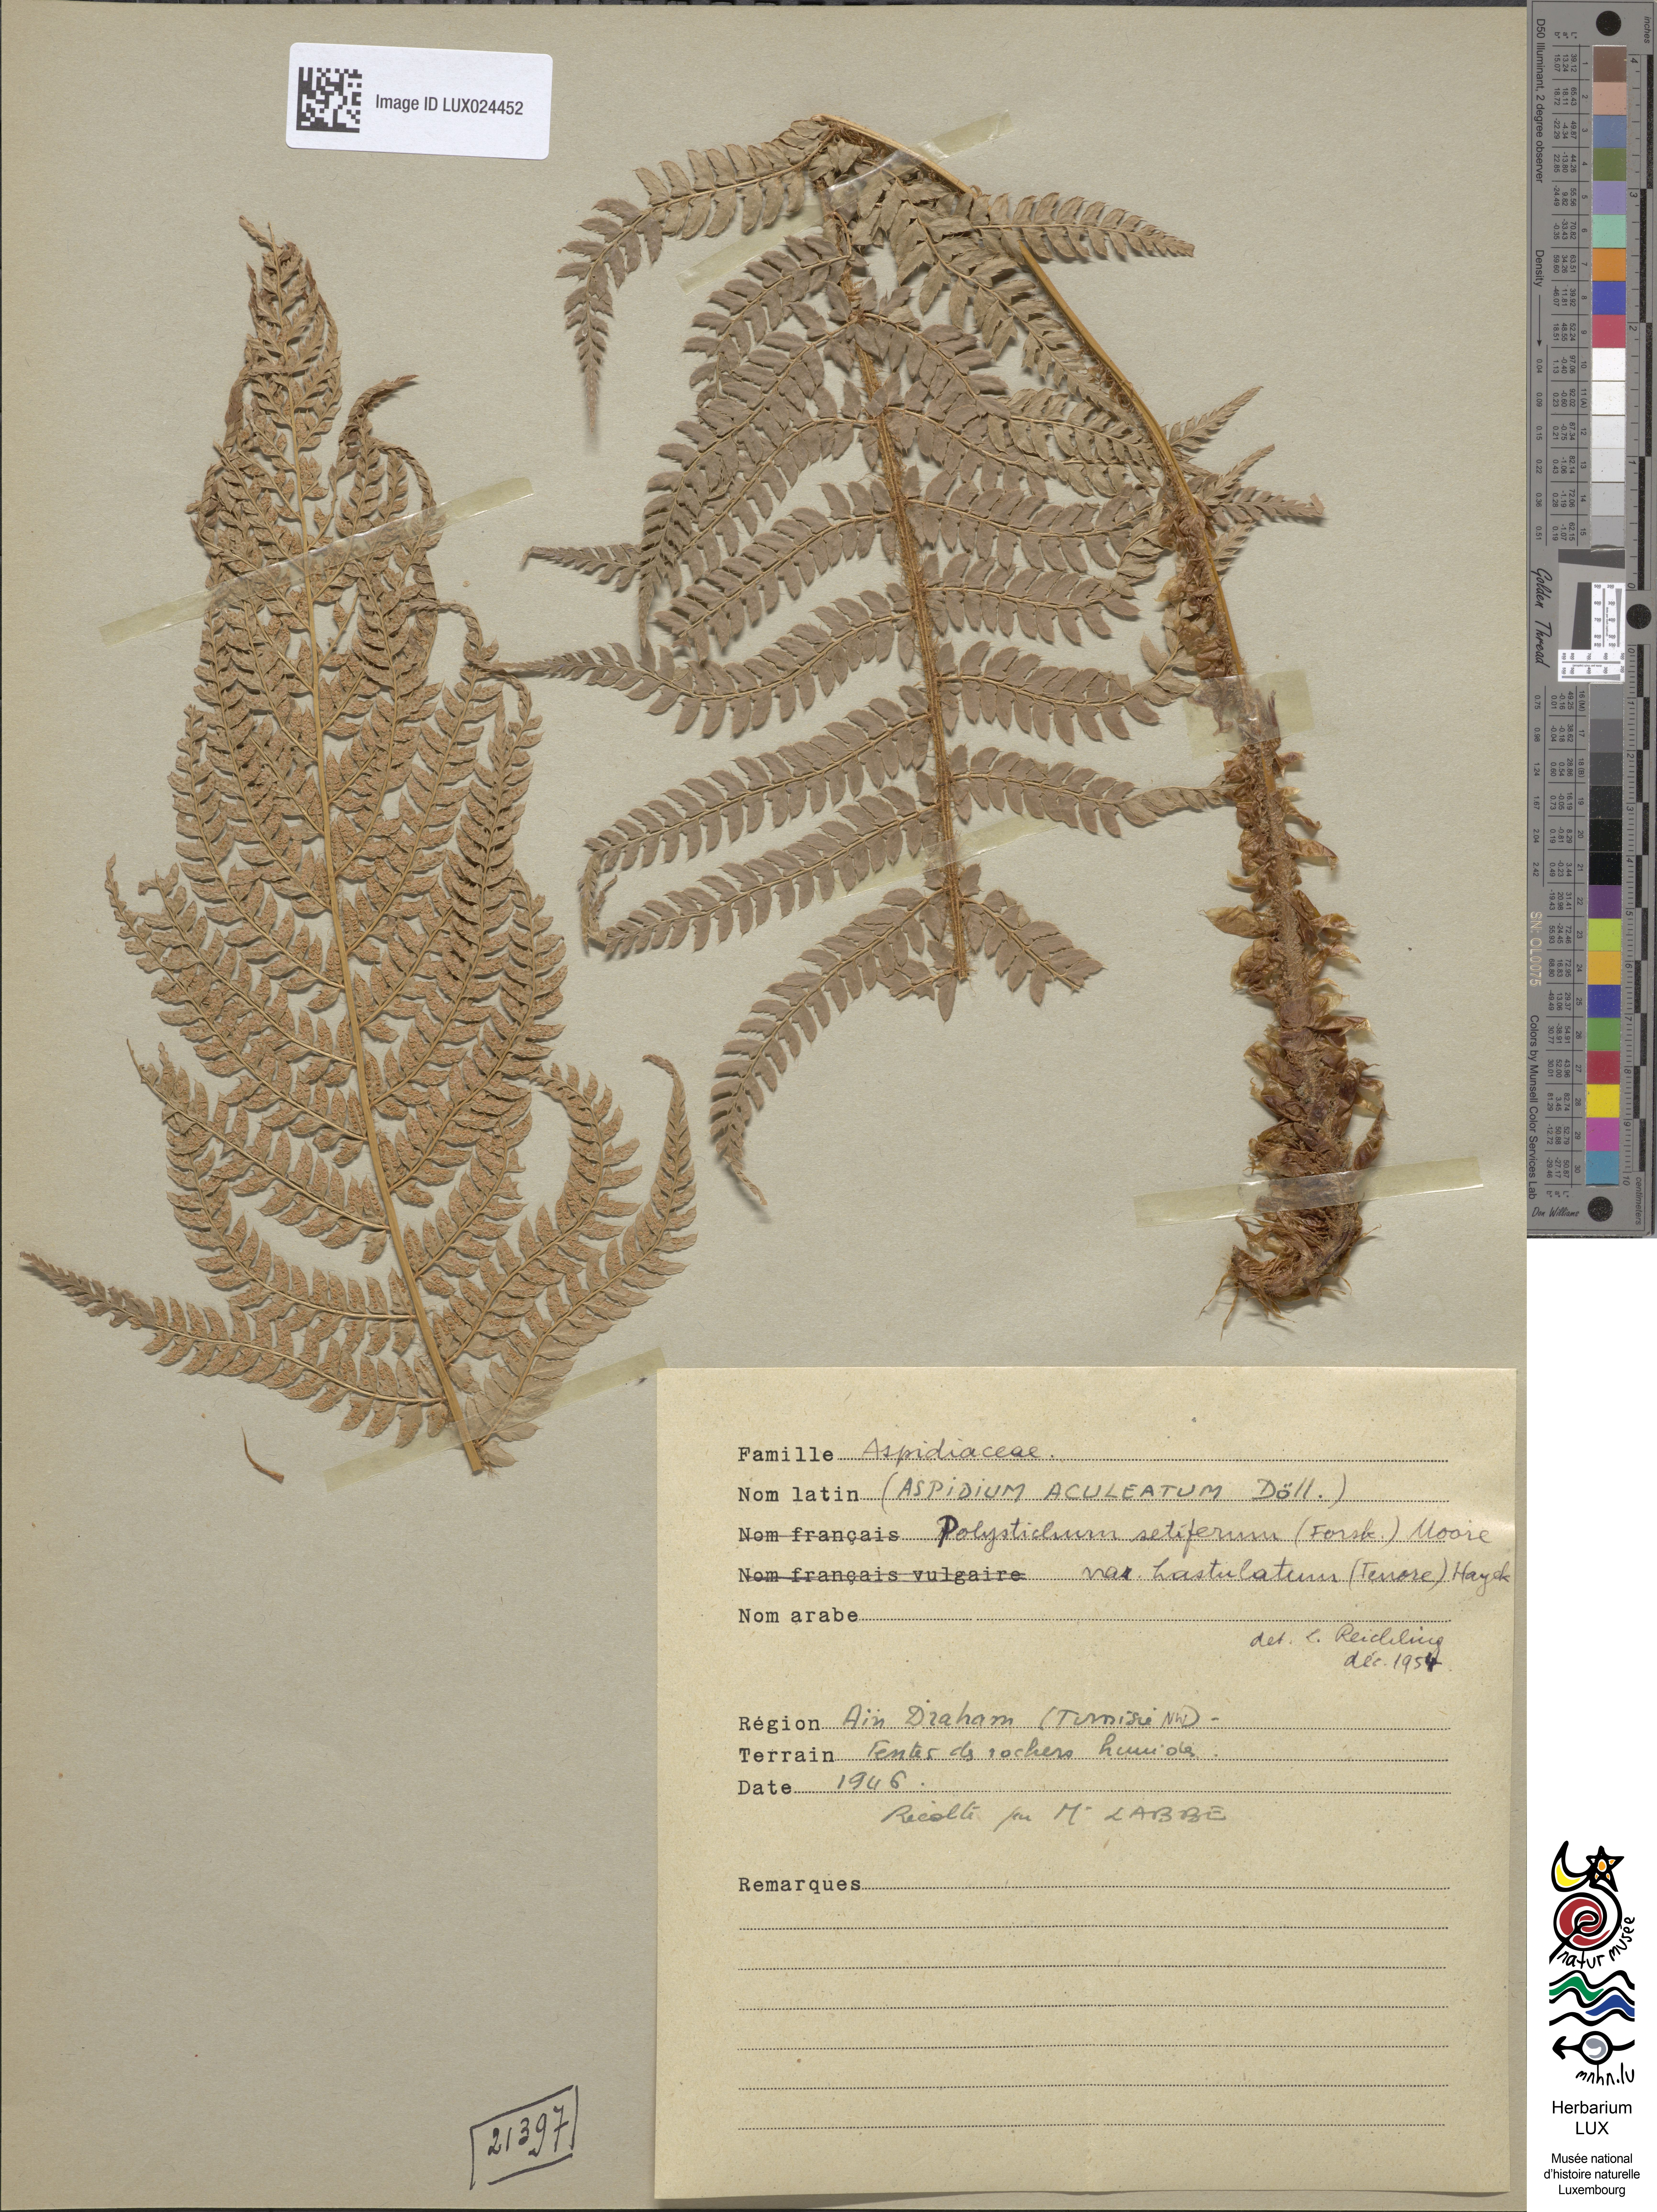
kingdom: Plantae
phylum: Tracheophyta
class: Polypodiopsida
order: Polypodiales
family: Dryopteridaceae
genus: Polystichum
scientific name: Polystichum setiferum
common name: Soft shield-fern
